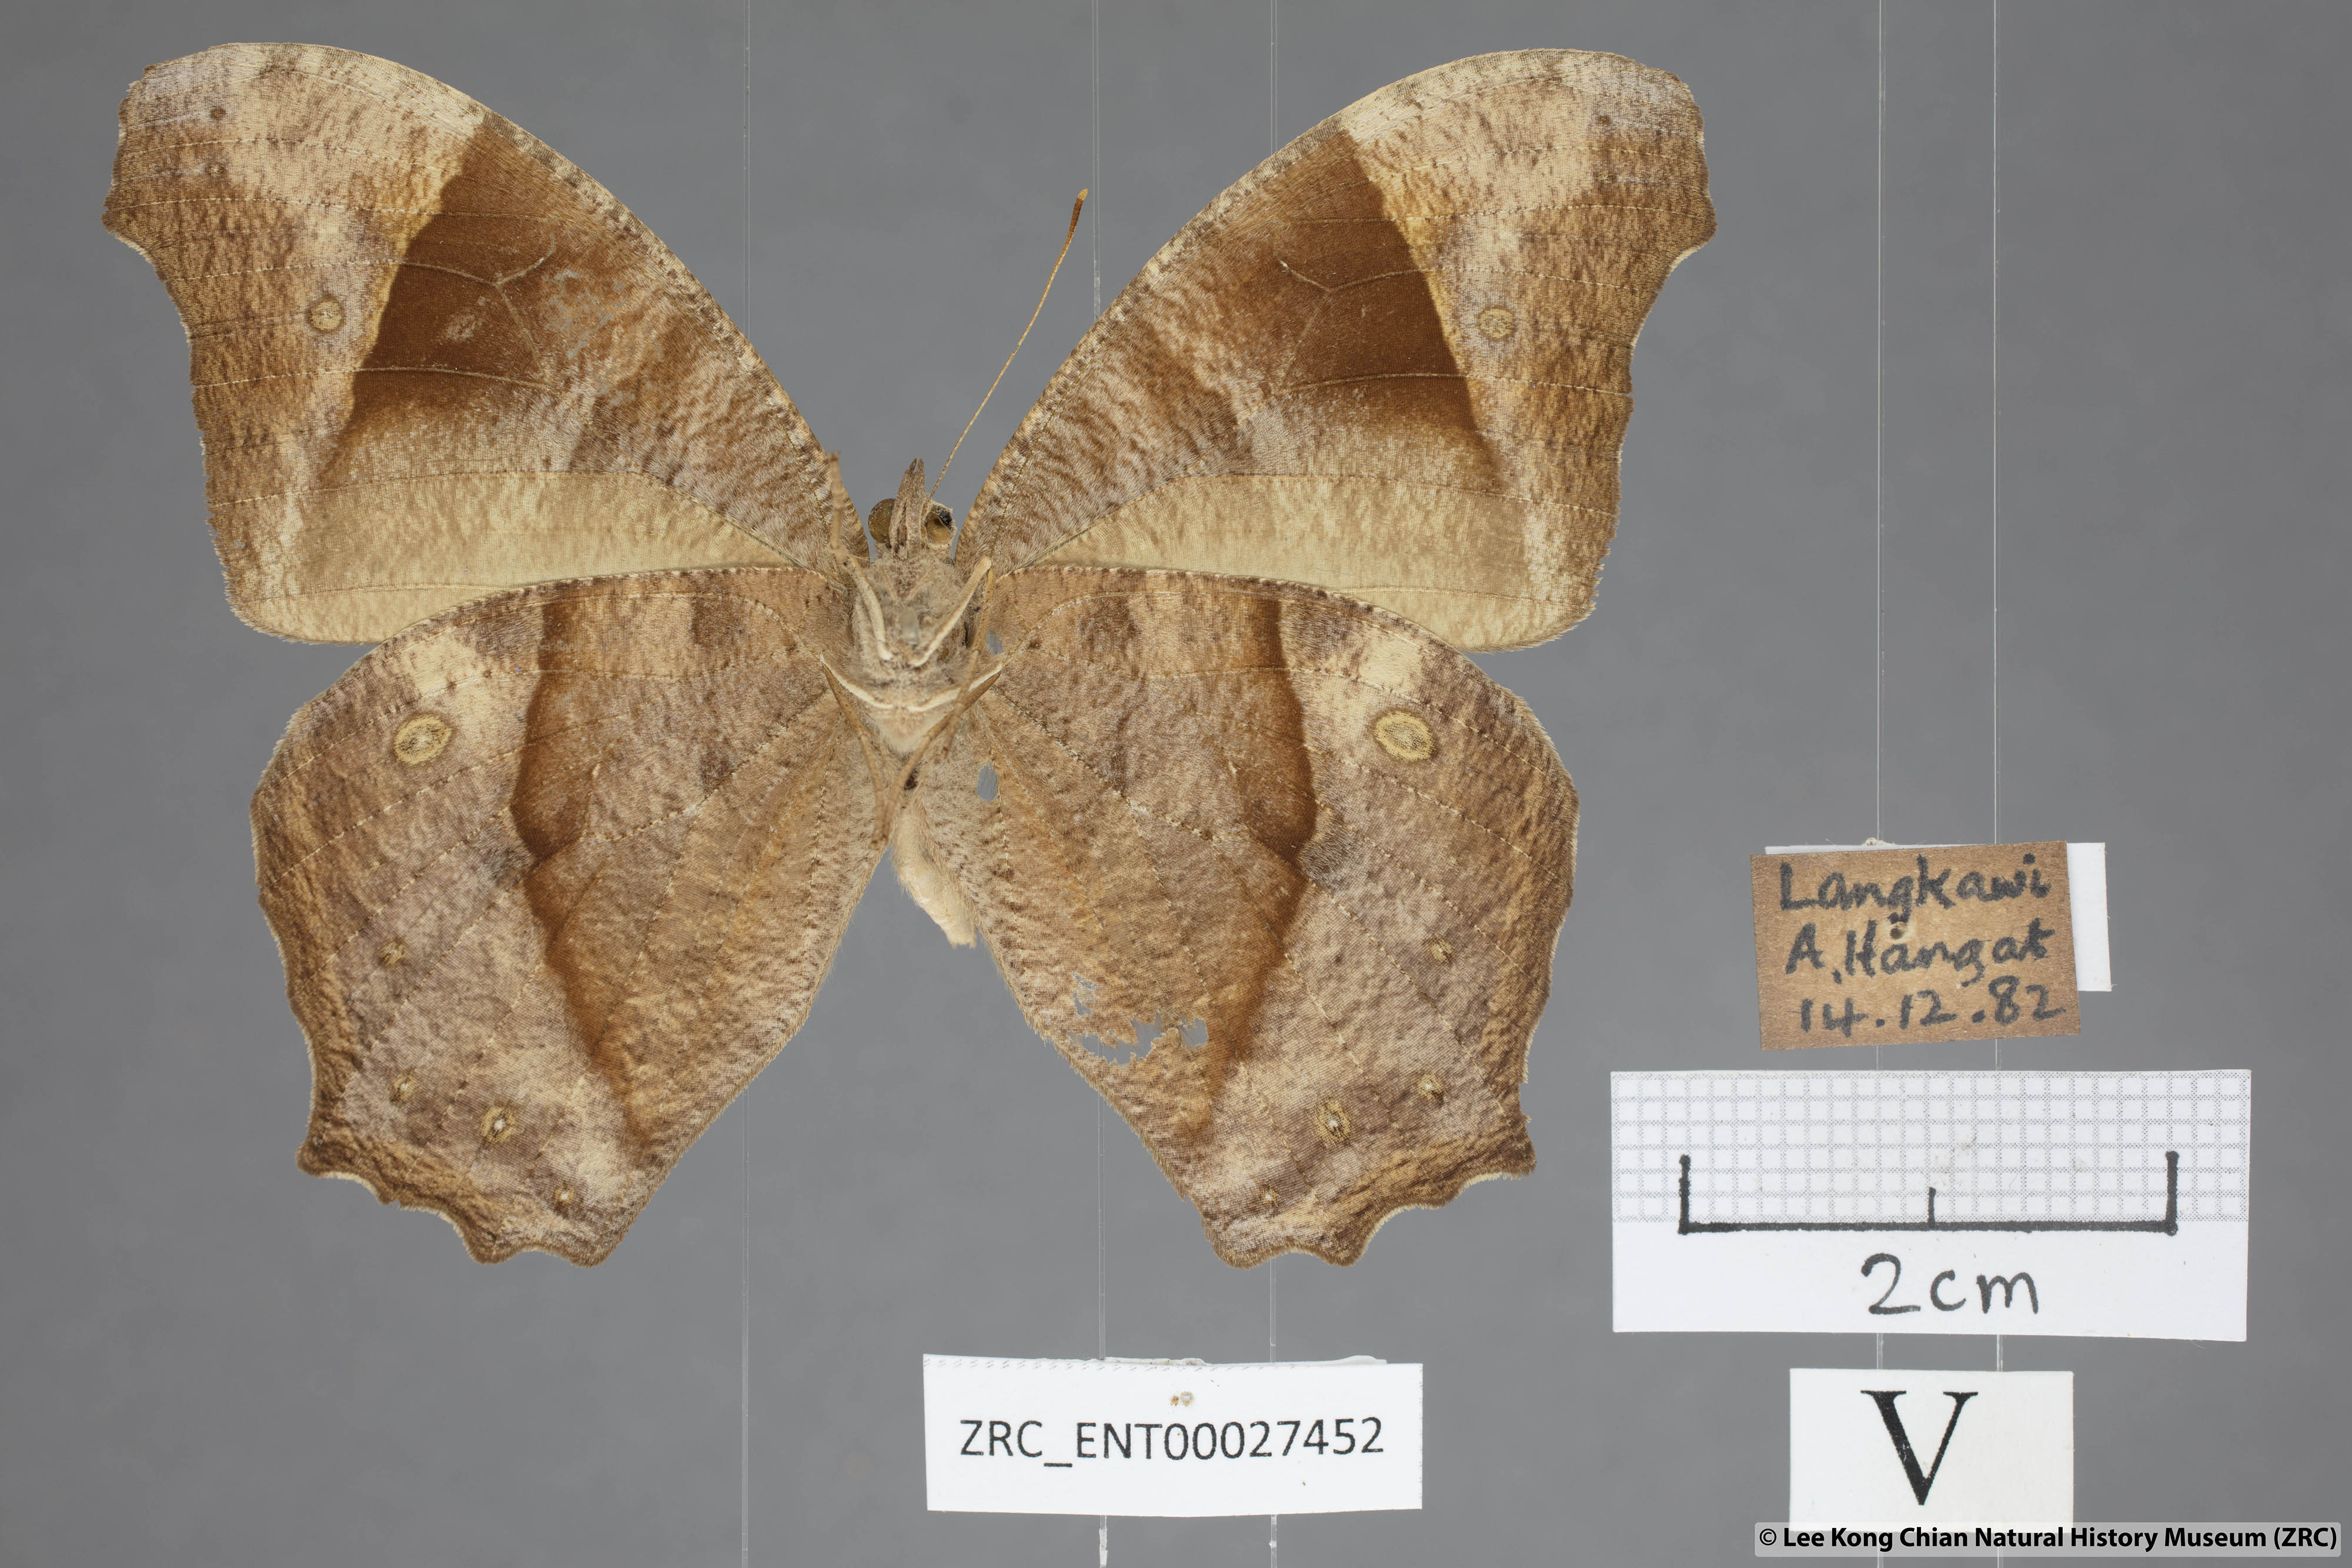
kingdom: Animalia
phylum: Arthropoda
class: Insecta
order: Lepidoptera
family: Nymphalidae
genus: Melanitis
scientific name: Melanitis leda
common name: Twilight brown
